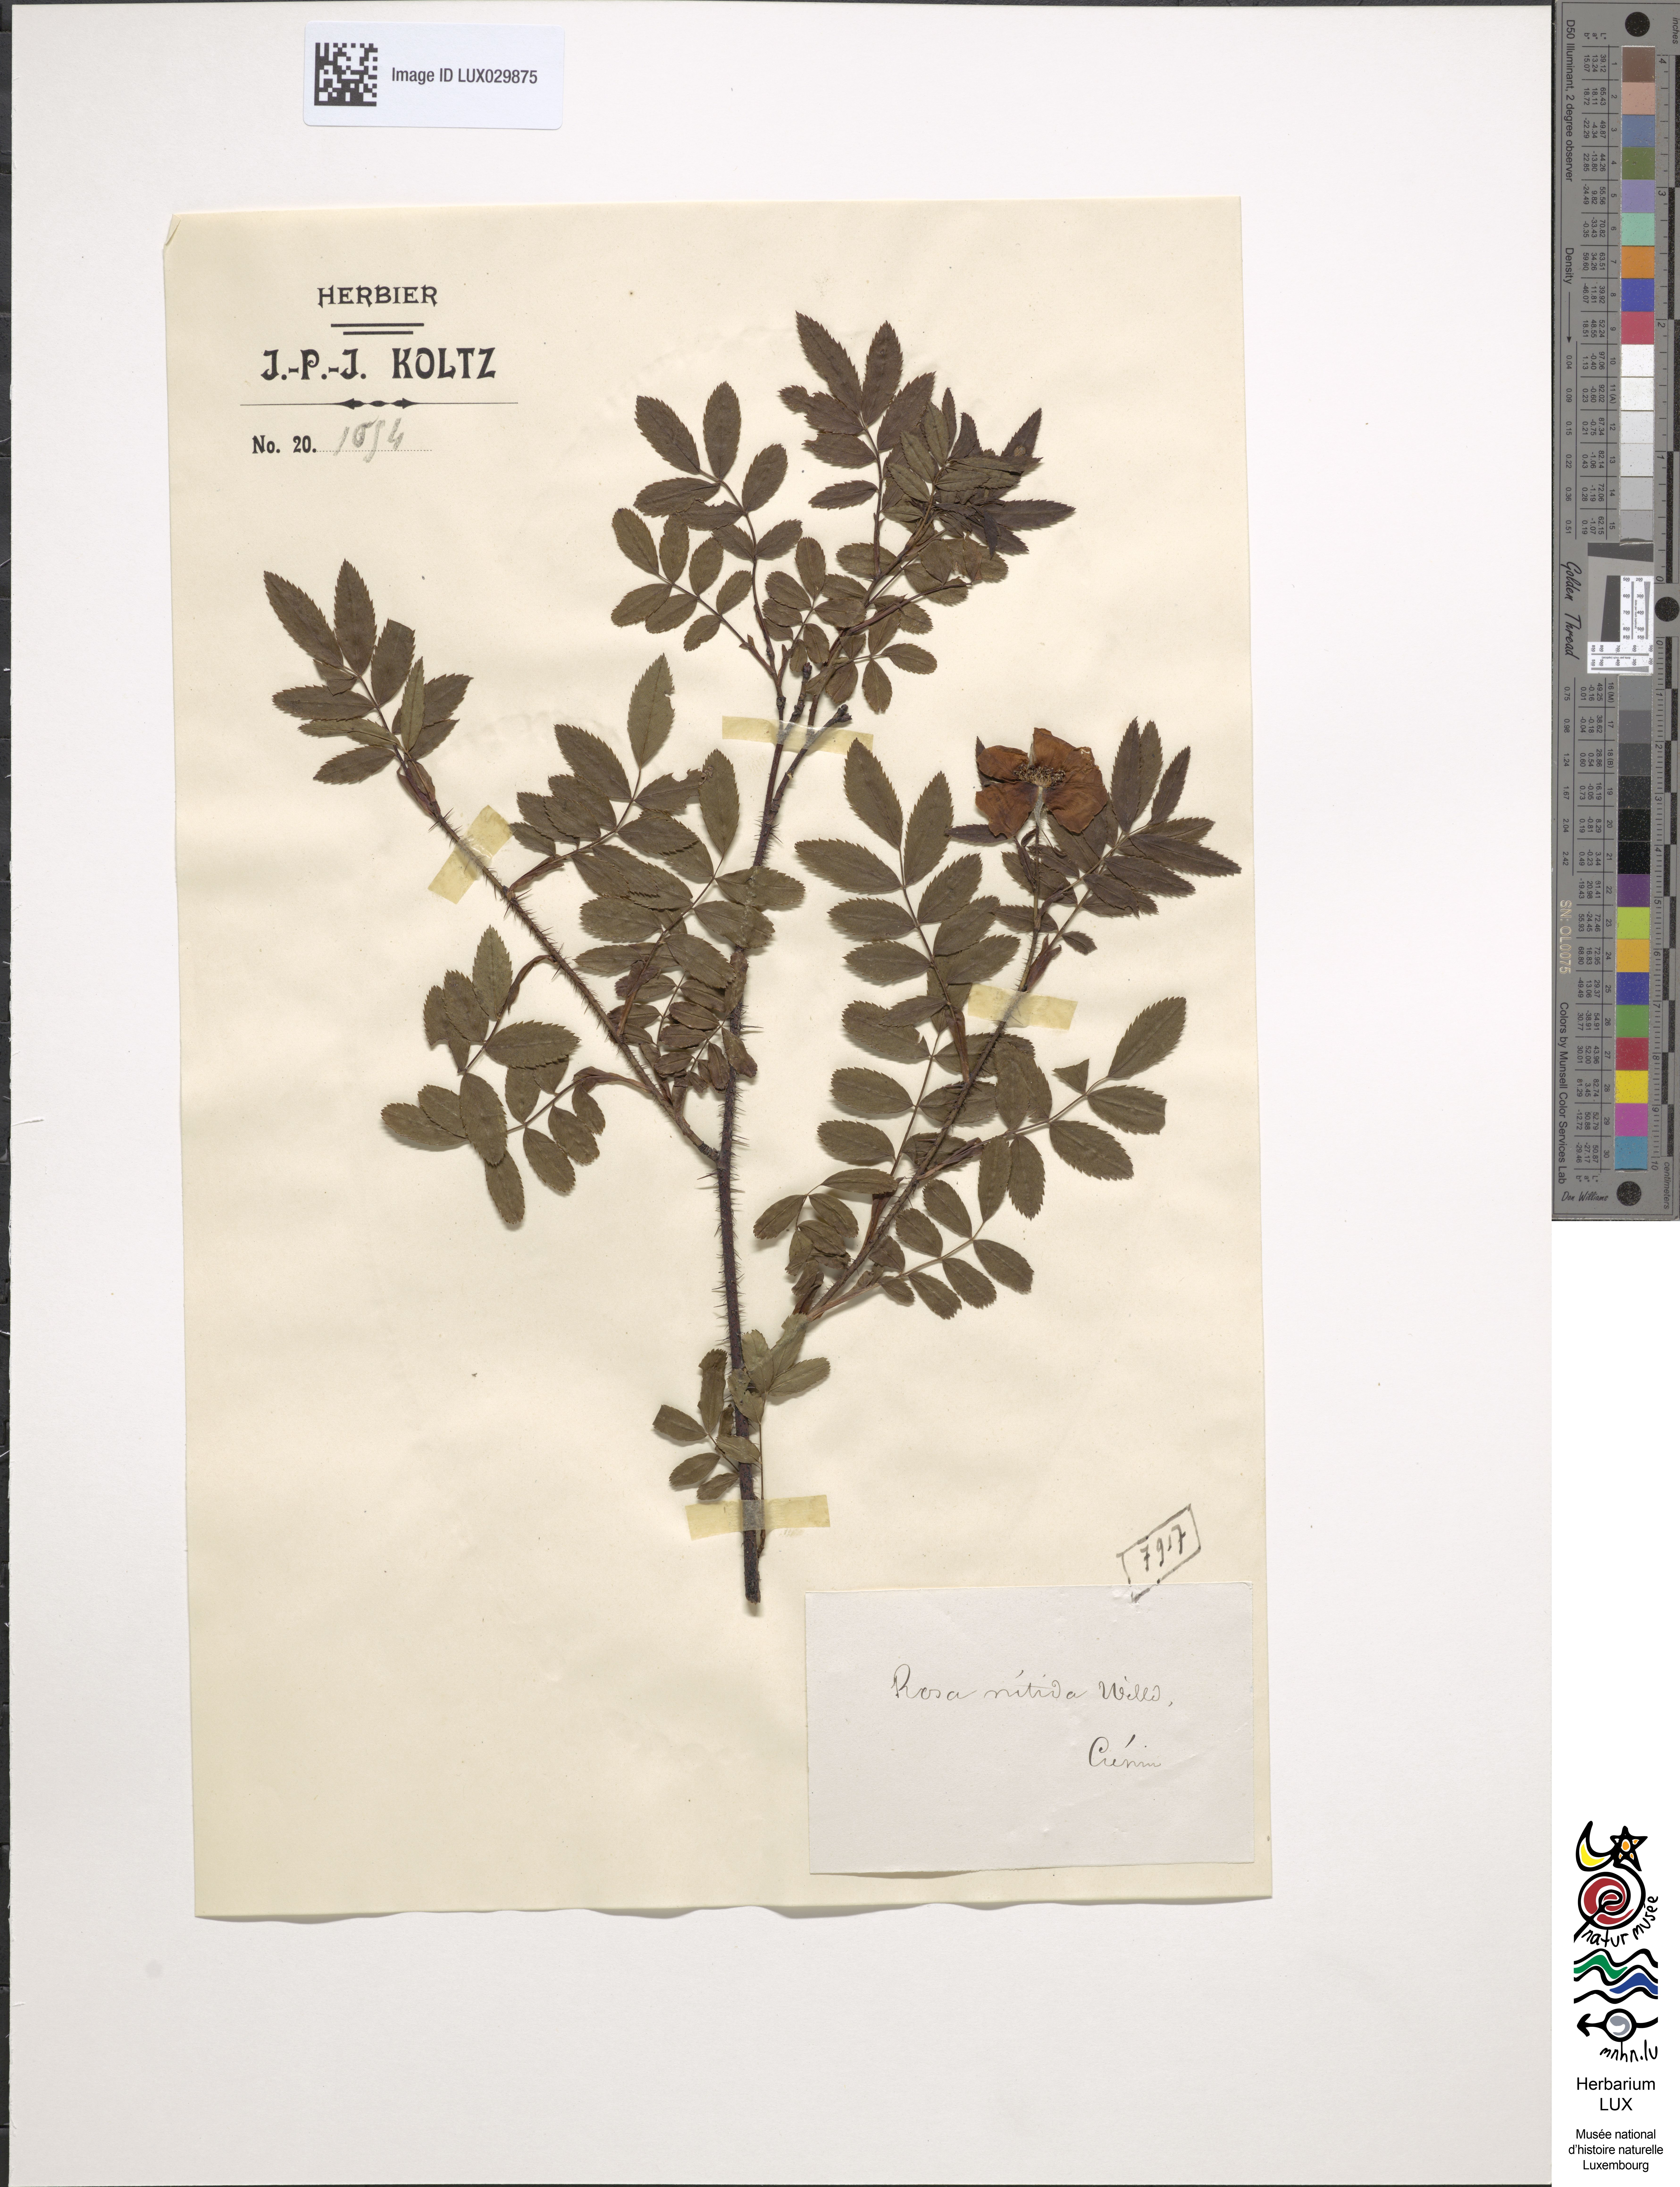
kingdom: Plantae
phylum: Tracheophyta
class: Magnoliopsida
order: Rosales
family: Rosaceae
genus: Rosa
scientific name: Rosa nitida
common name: New england rose
